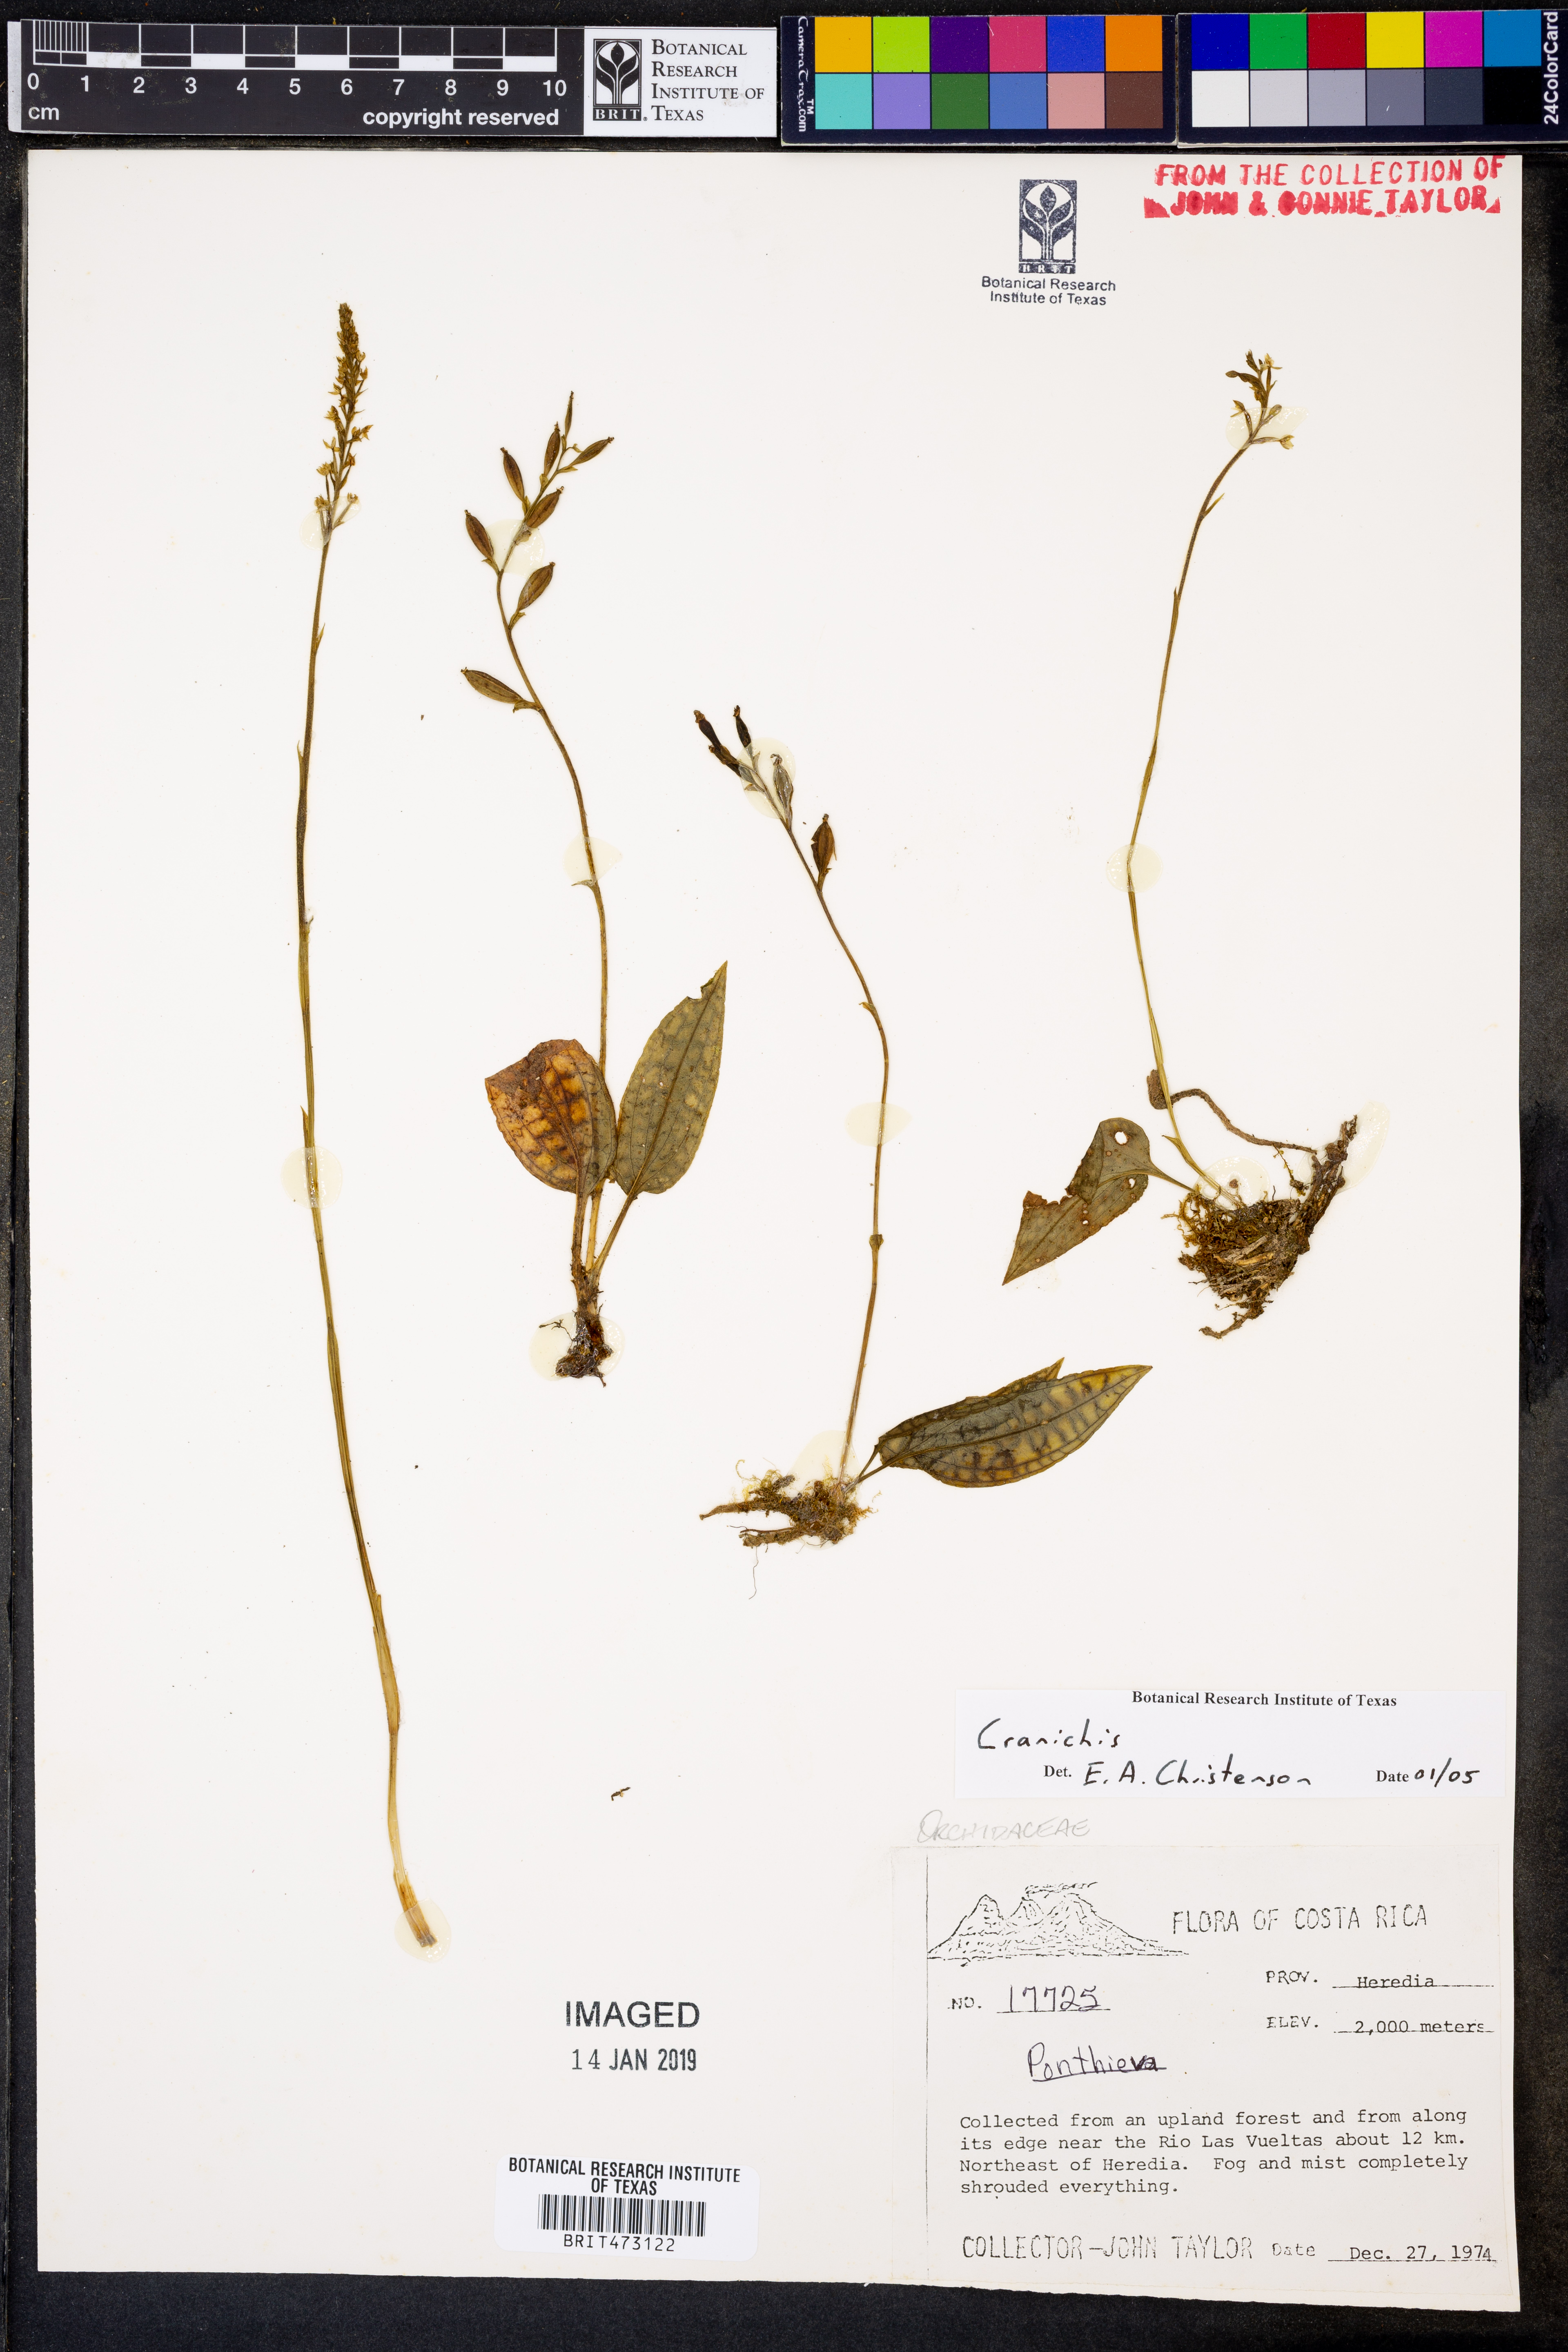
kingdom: Plantae
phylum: Tracheophyta
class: Liliopsida
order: Asparagales
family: Orchidaceae
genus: Cranichis
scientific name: Cranichis
